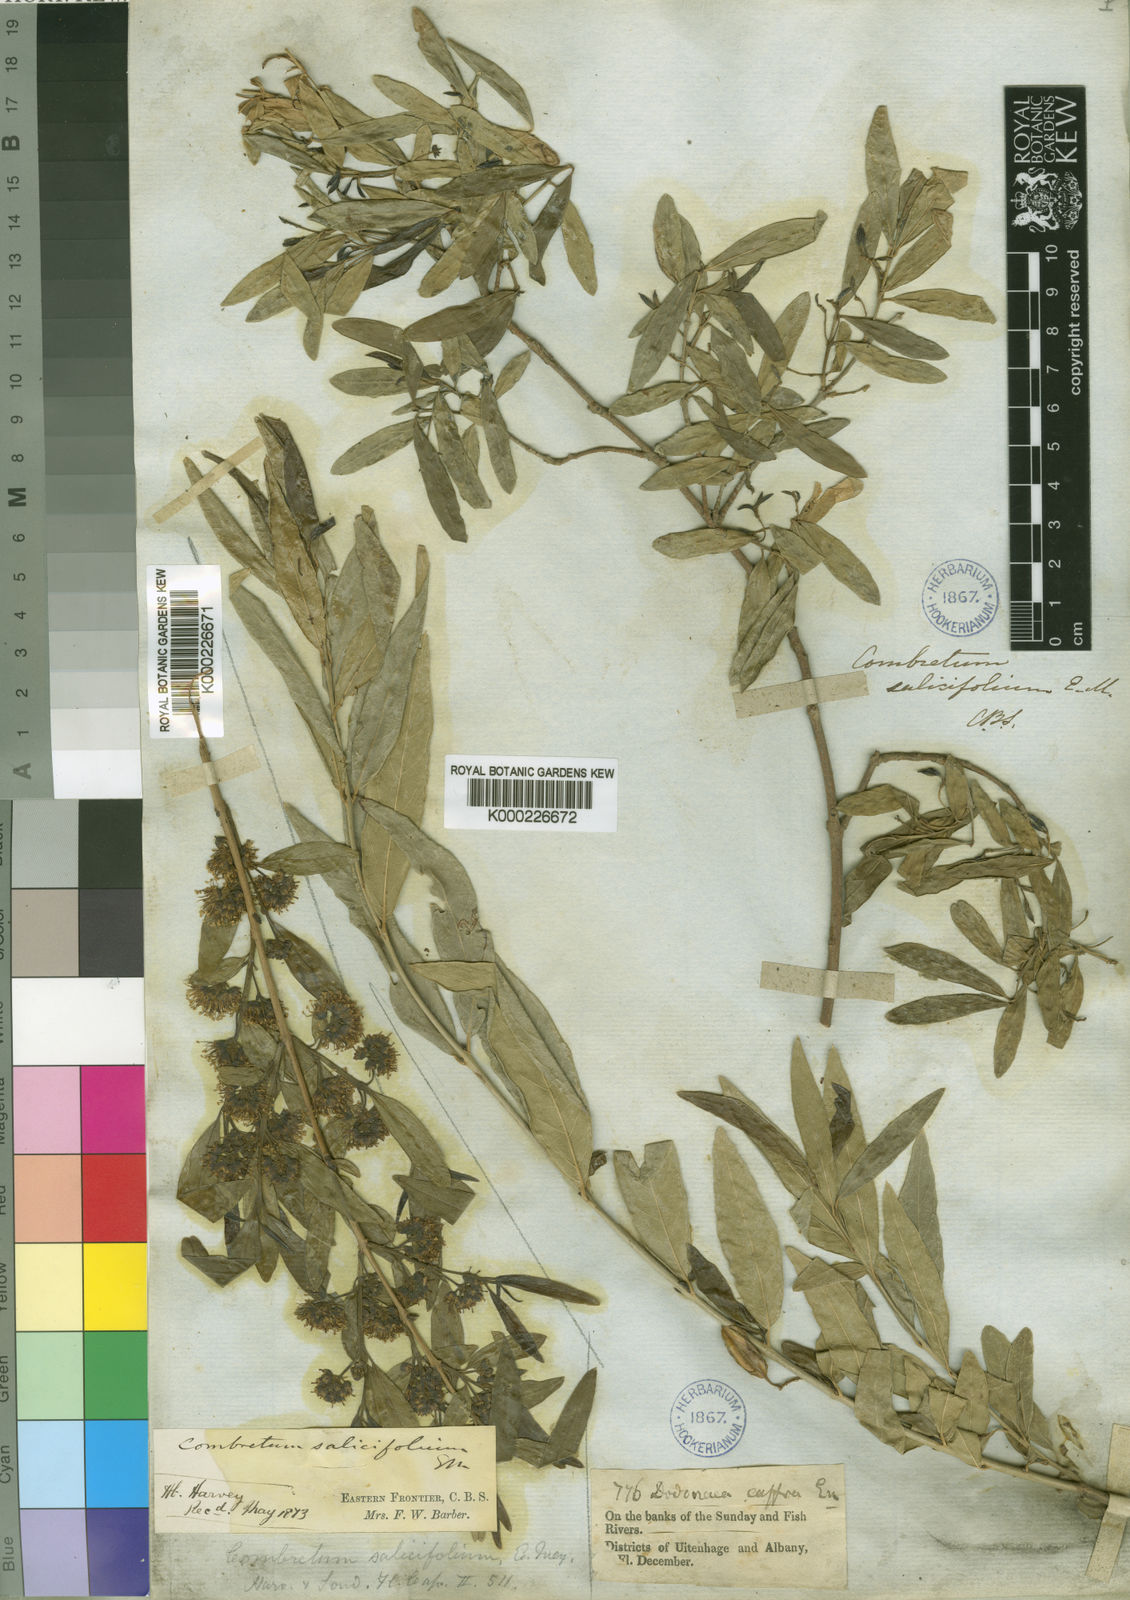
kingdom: Plantae
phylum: Tracheophyta
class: Magnoliopsida
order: Myrtales
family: Combretaceae
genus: Combretum
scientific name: Combretum caffrum
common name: Cape bushwillow
